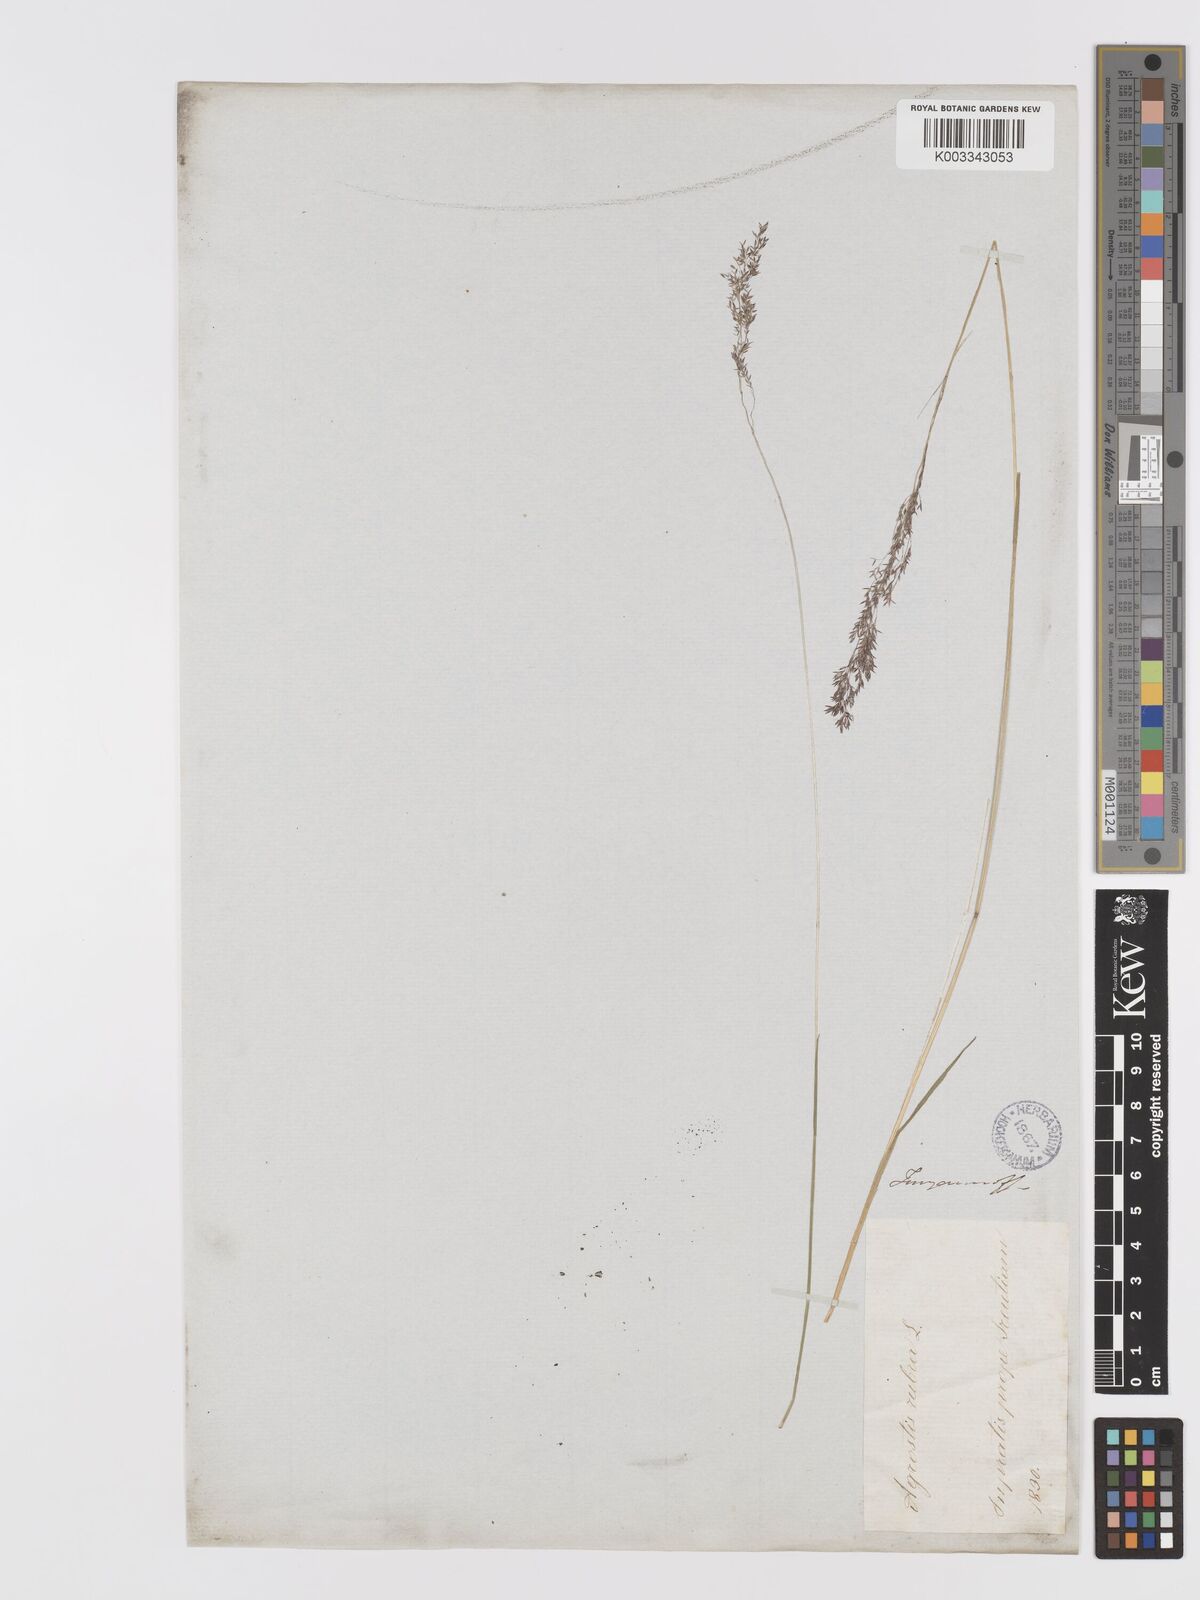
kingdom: Plantae
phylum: Tracheophyta
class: Liliopsida
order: Poales
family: Poaceae
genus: Agrostis
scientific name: Agrostis
